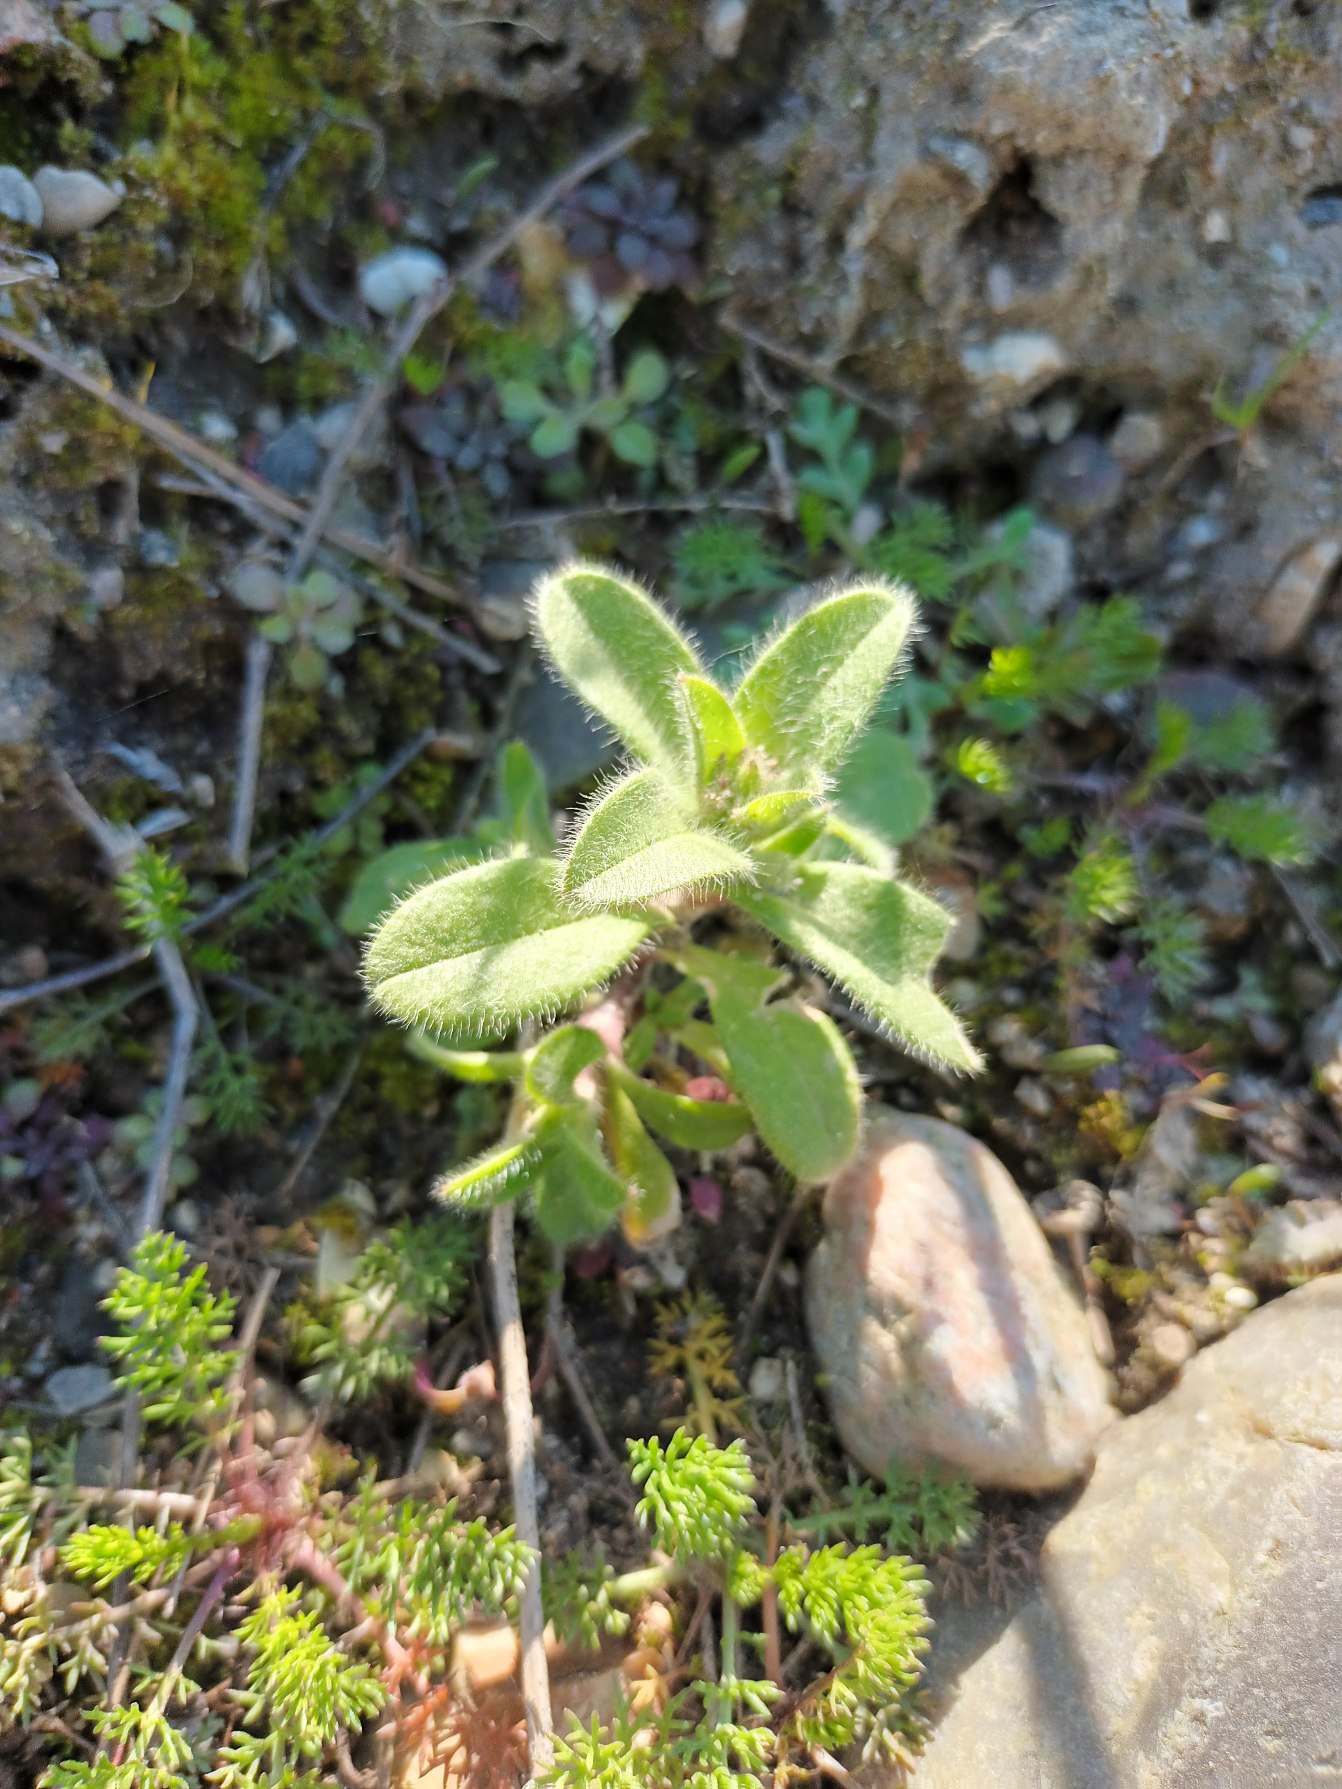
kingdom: Plantae
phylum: Tracheophyta
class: Magnoliopsida
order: Caryophyllales
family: Caryophyllaceae
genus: Cerastium
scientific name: Cerastium glomeratum
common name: Opret hønsetarm
